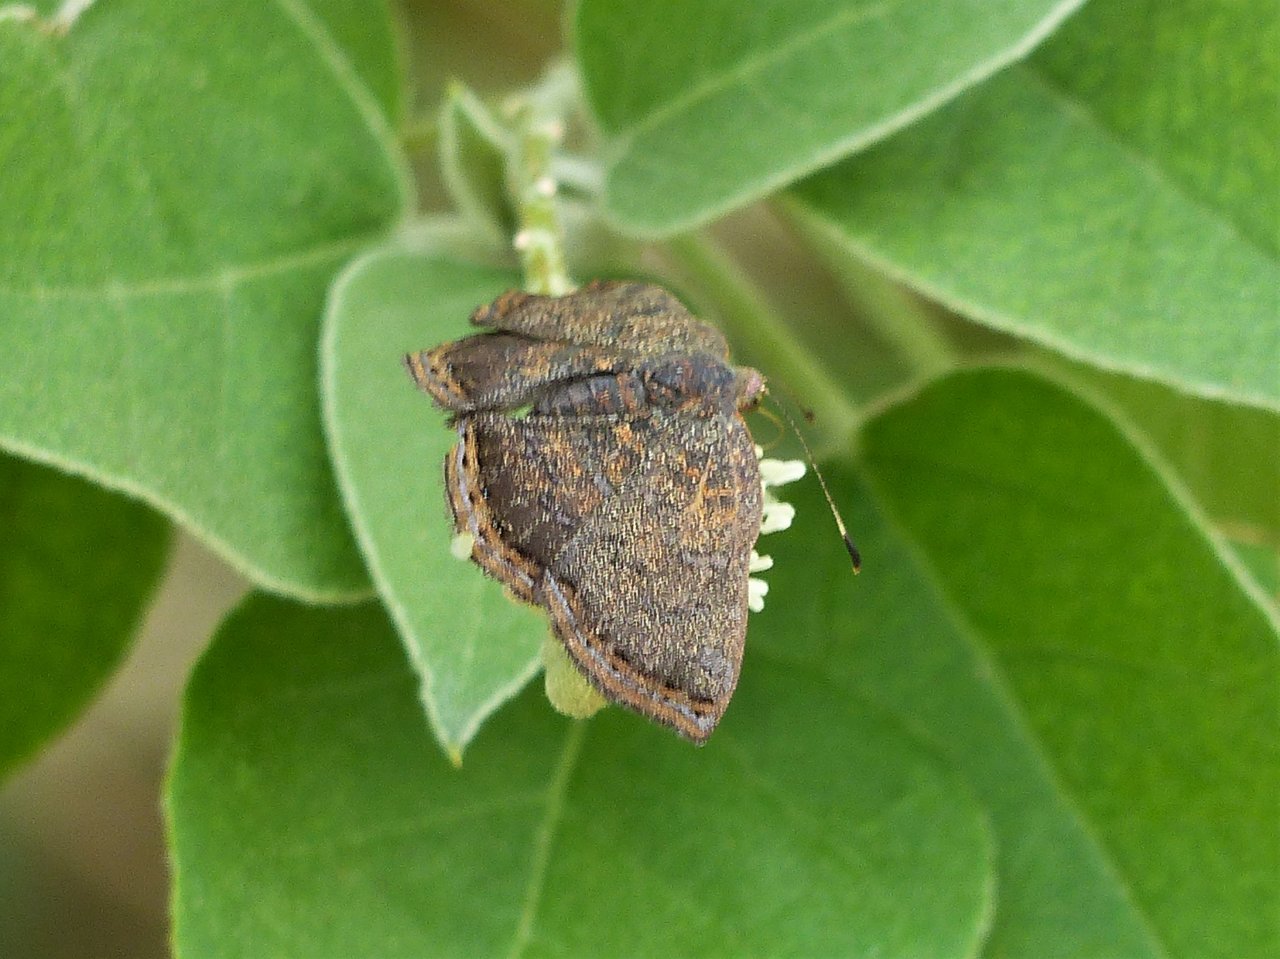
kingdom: Animalia
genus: Caria
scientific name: Caria ino
